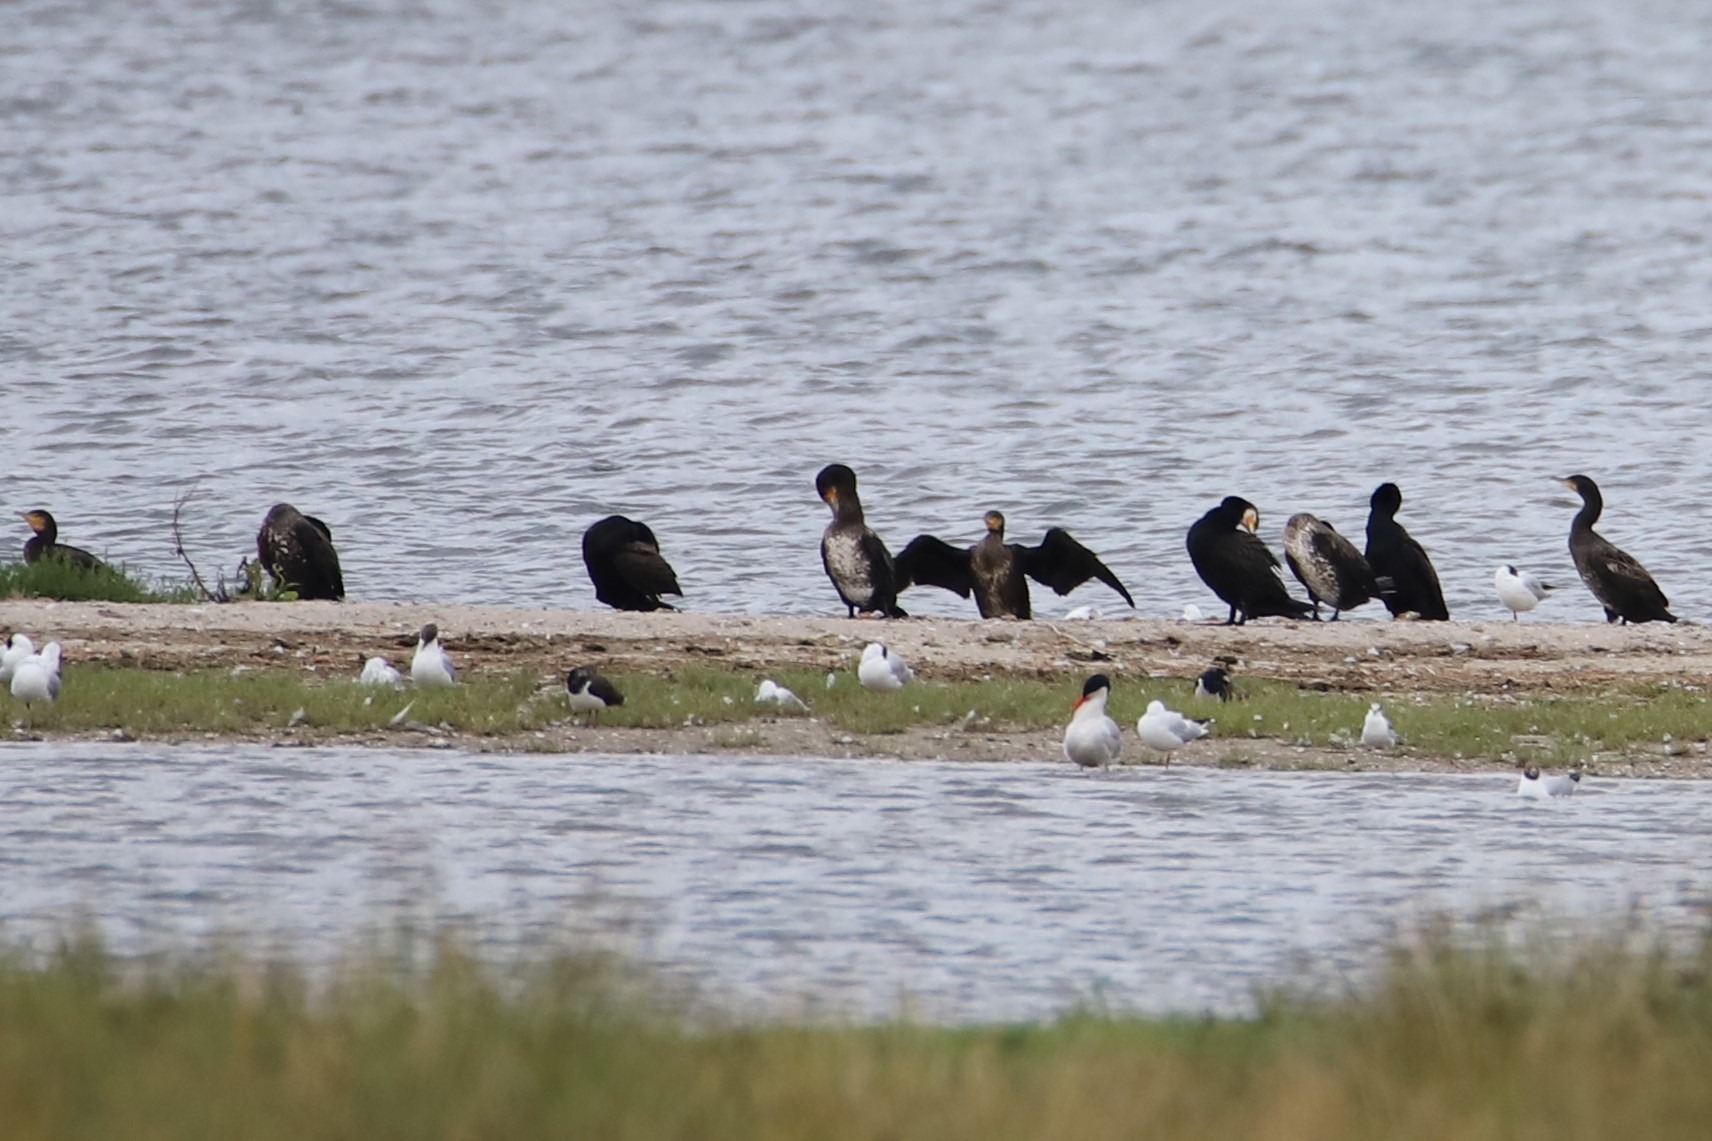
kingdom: Animalia
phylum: Chordata
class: Aves
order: Charadriiformes
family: Laridae
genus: Hydroprogne
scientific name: Hydroprogne caspia
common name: Rovterne
